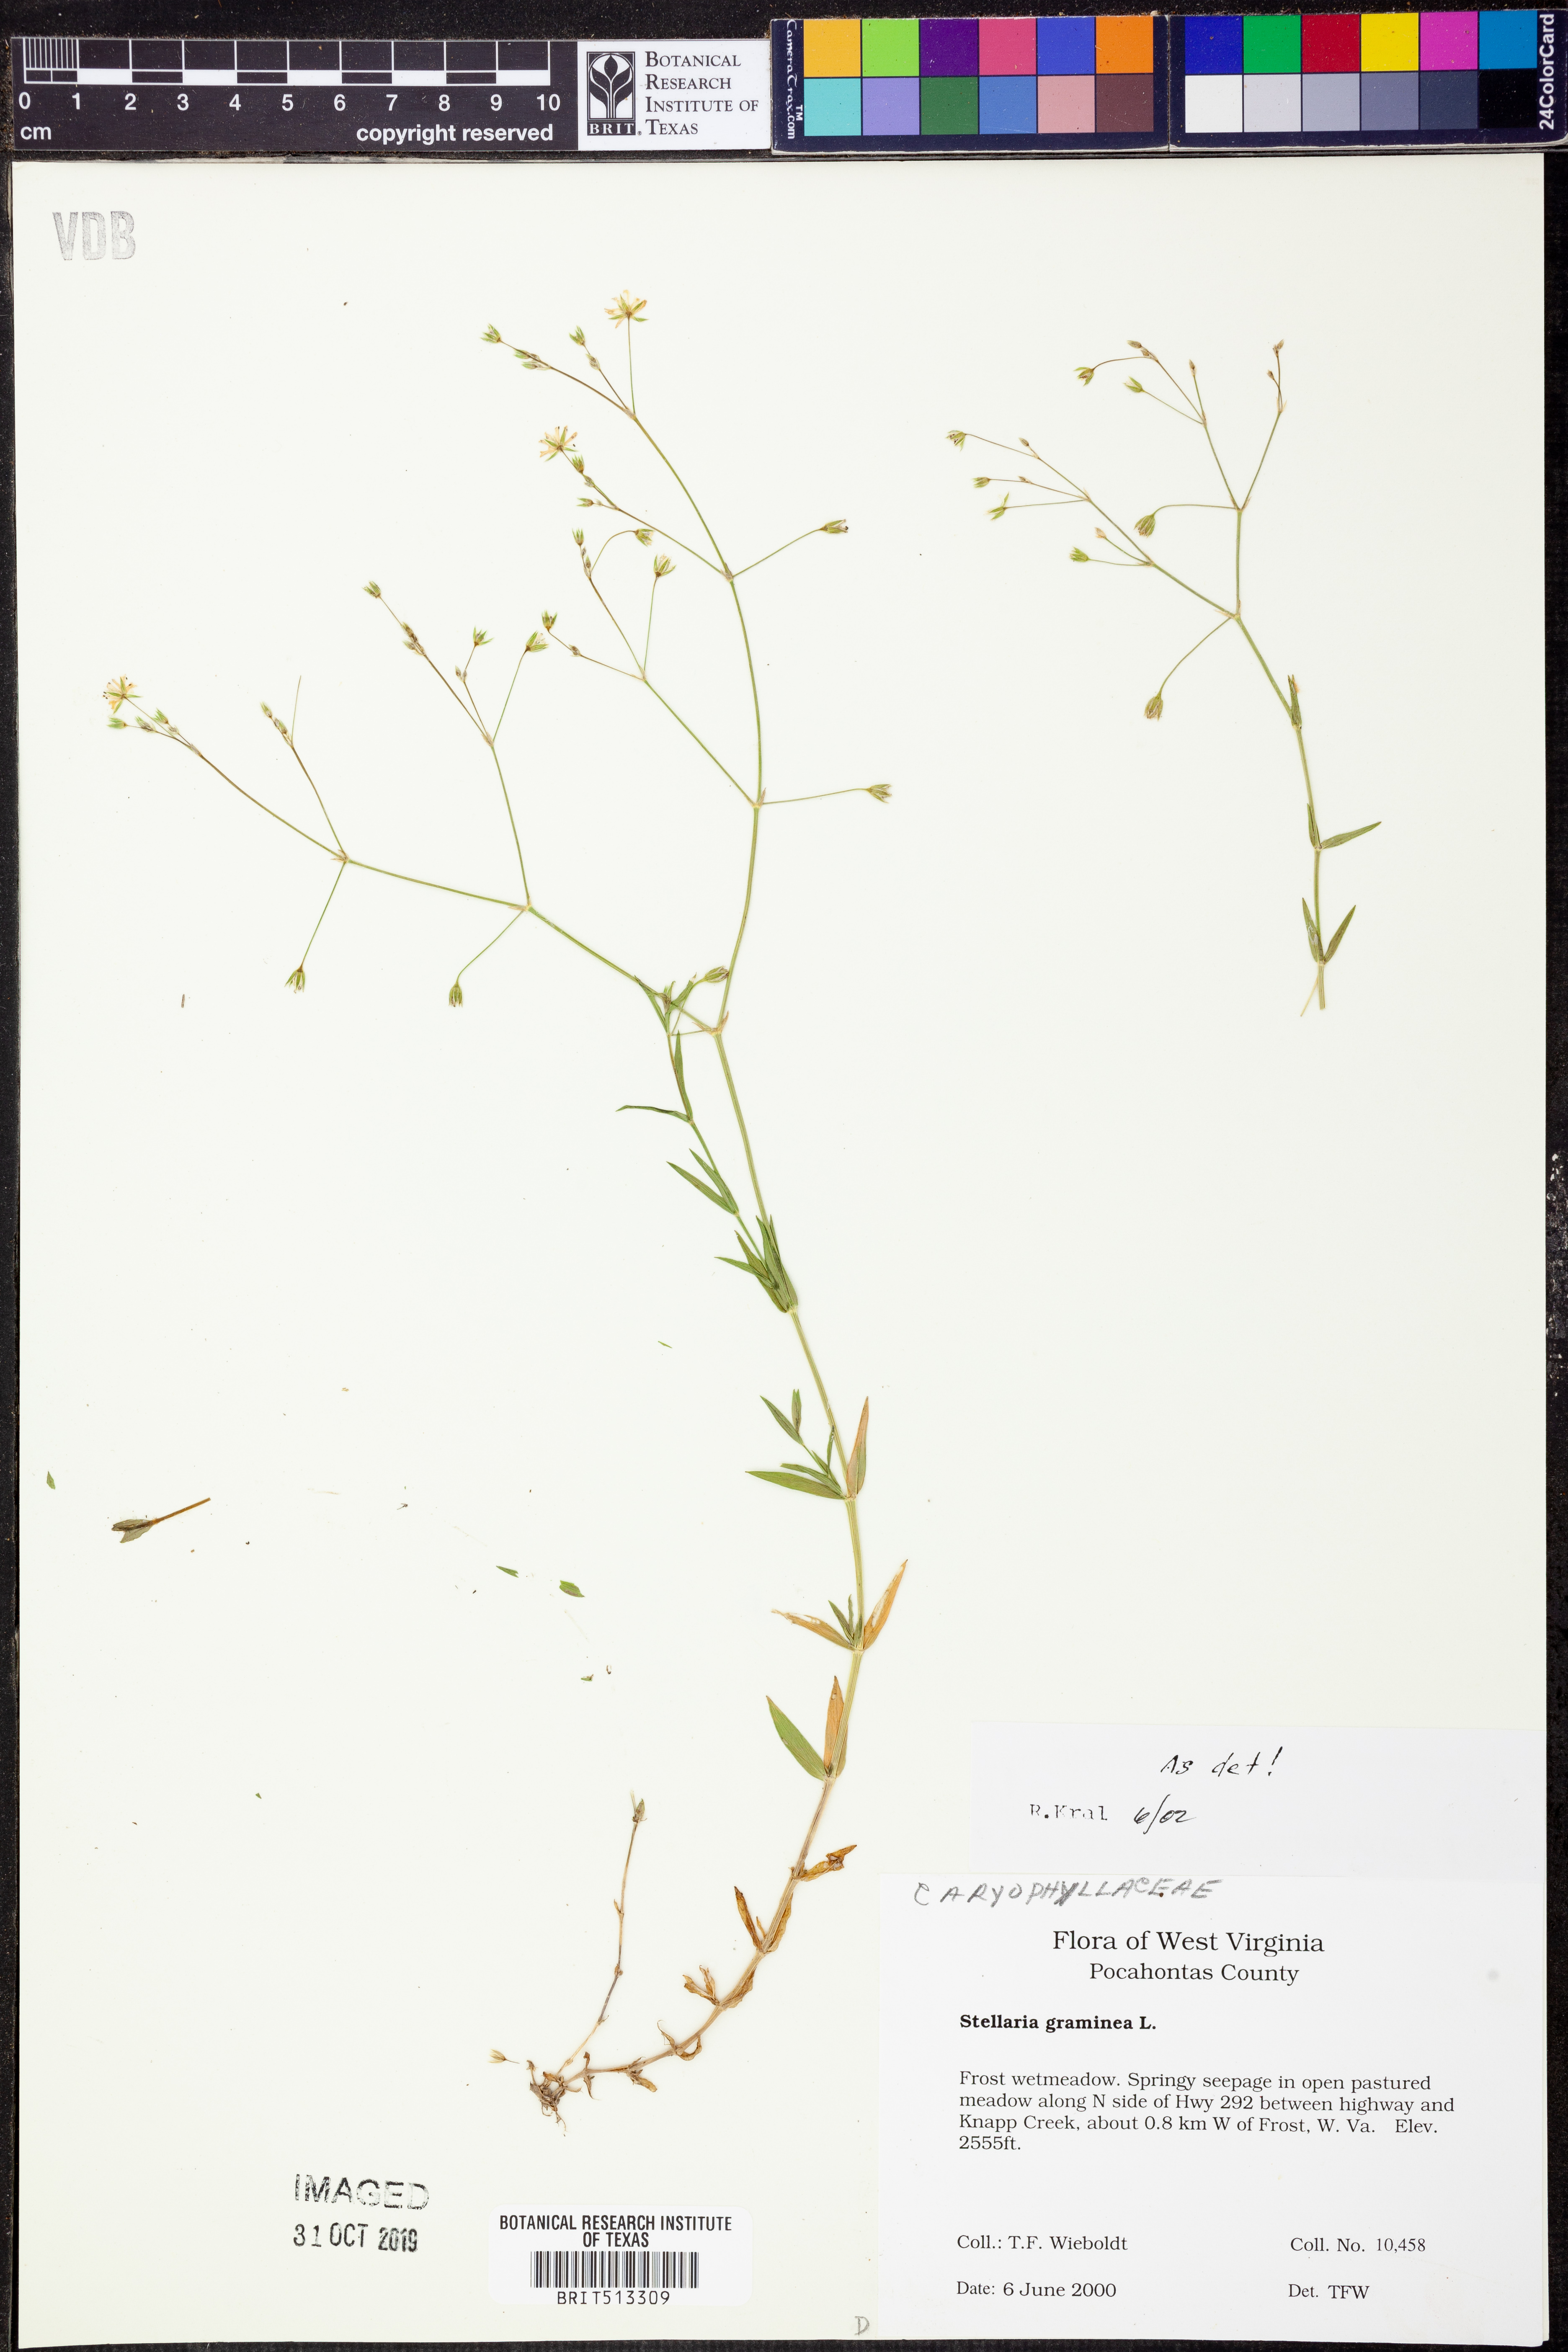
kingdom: Plantae
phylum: Tracheophyta
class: Magnoliopsida
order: Caryophyllales
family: Caryophyllaceae
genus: Stellaria
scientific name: Stellaria graminea
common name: Grass-like starwort
